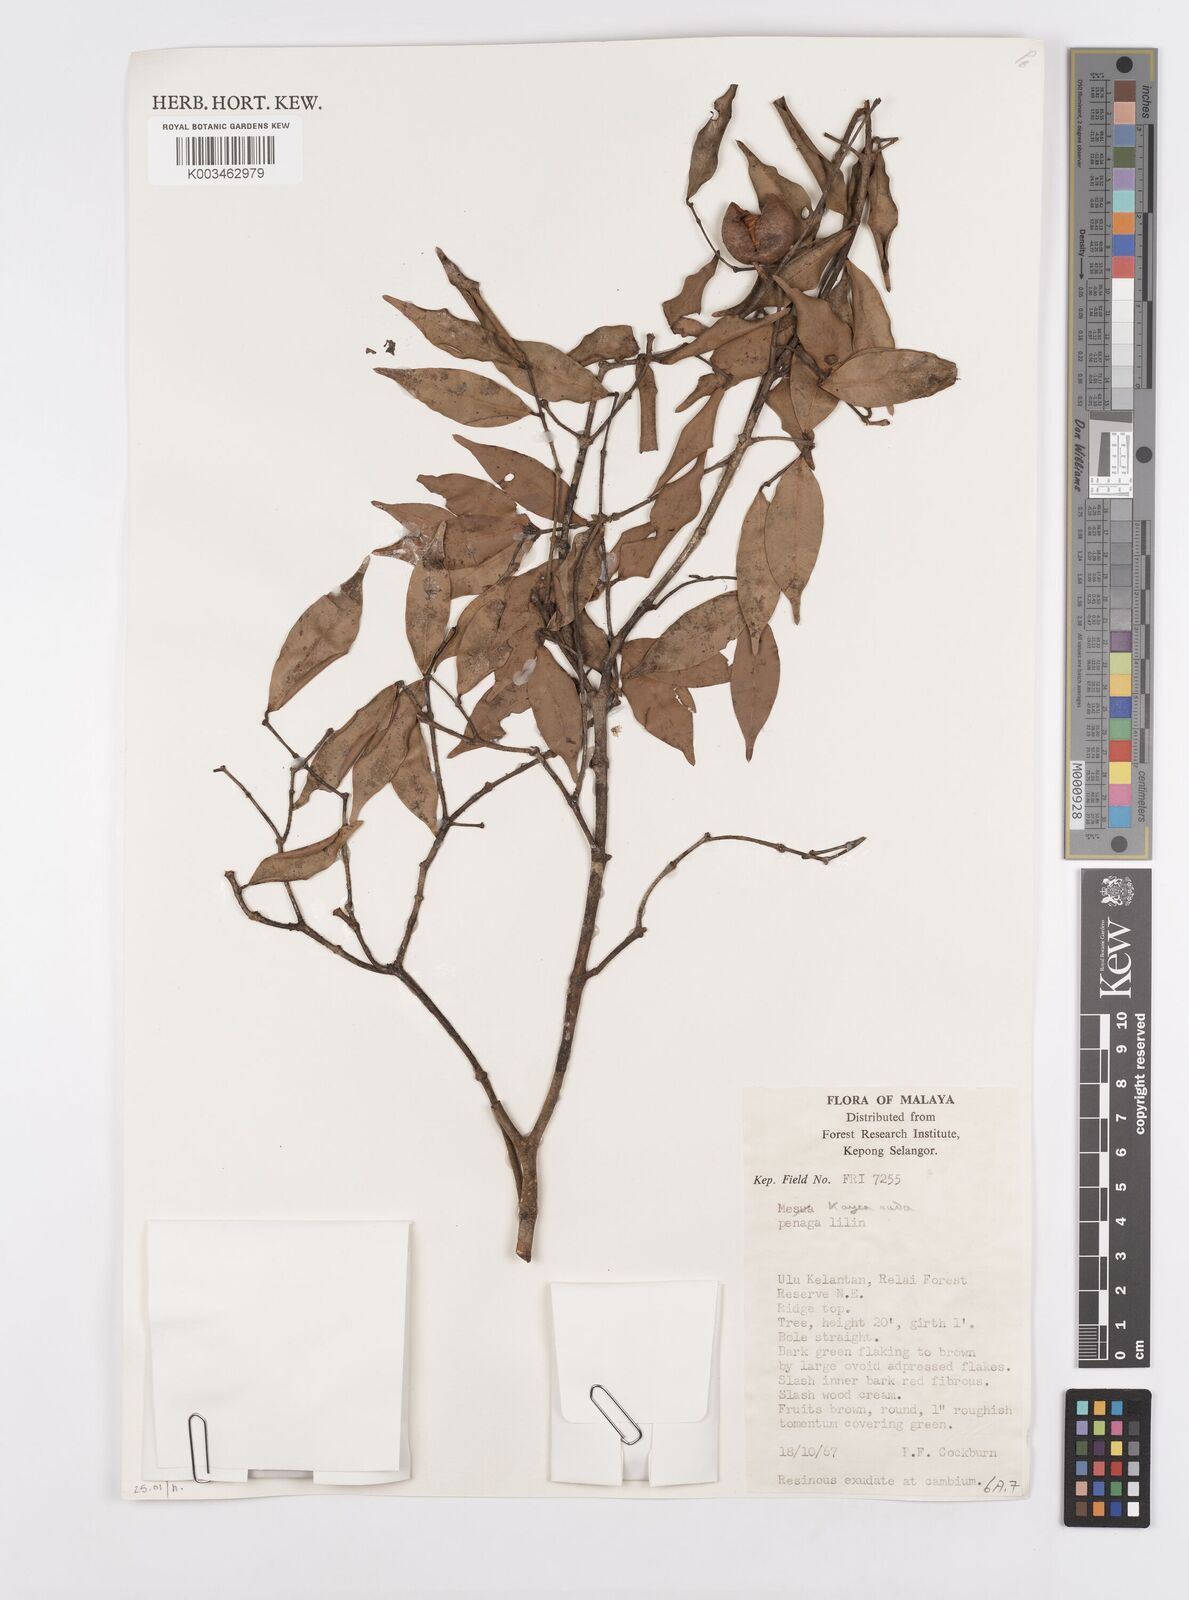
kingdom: Plantae
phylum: Tracheophyta
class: Magnoliopsida
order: Malpighiales
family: Calophyllaceae
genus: Kayea
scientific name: Kayea
